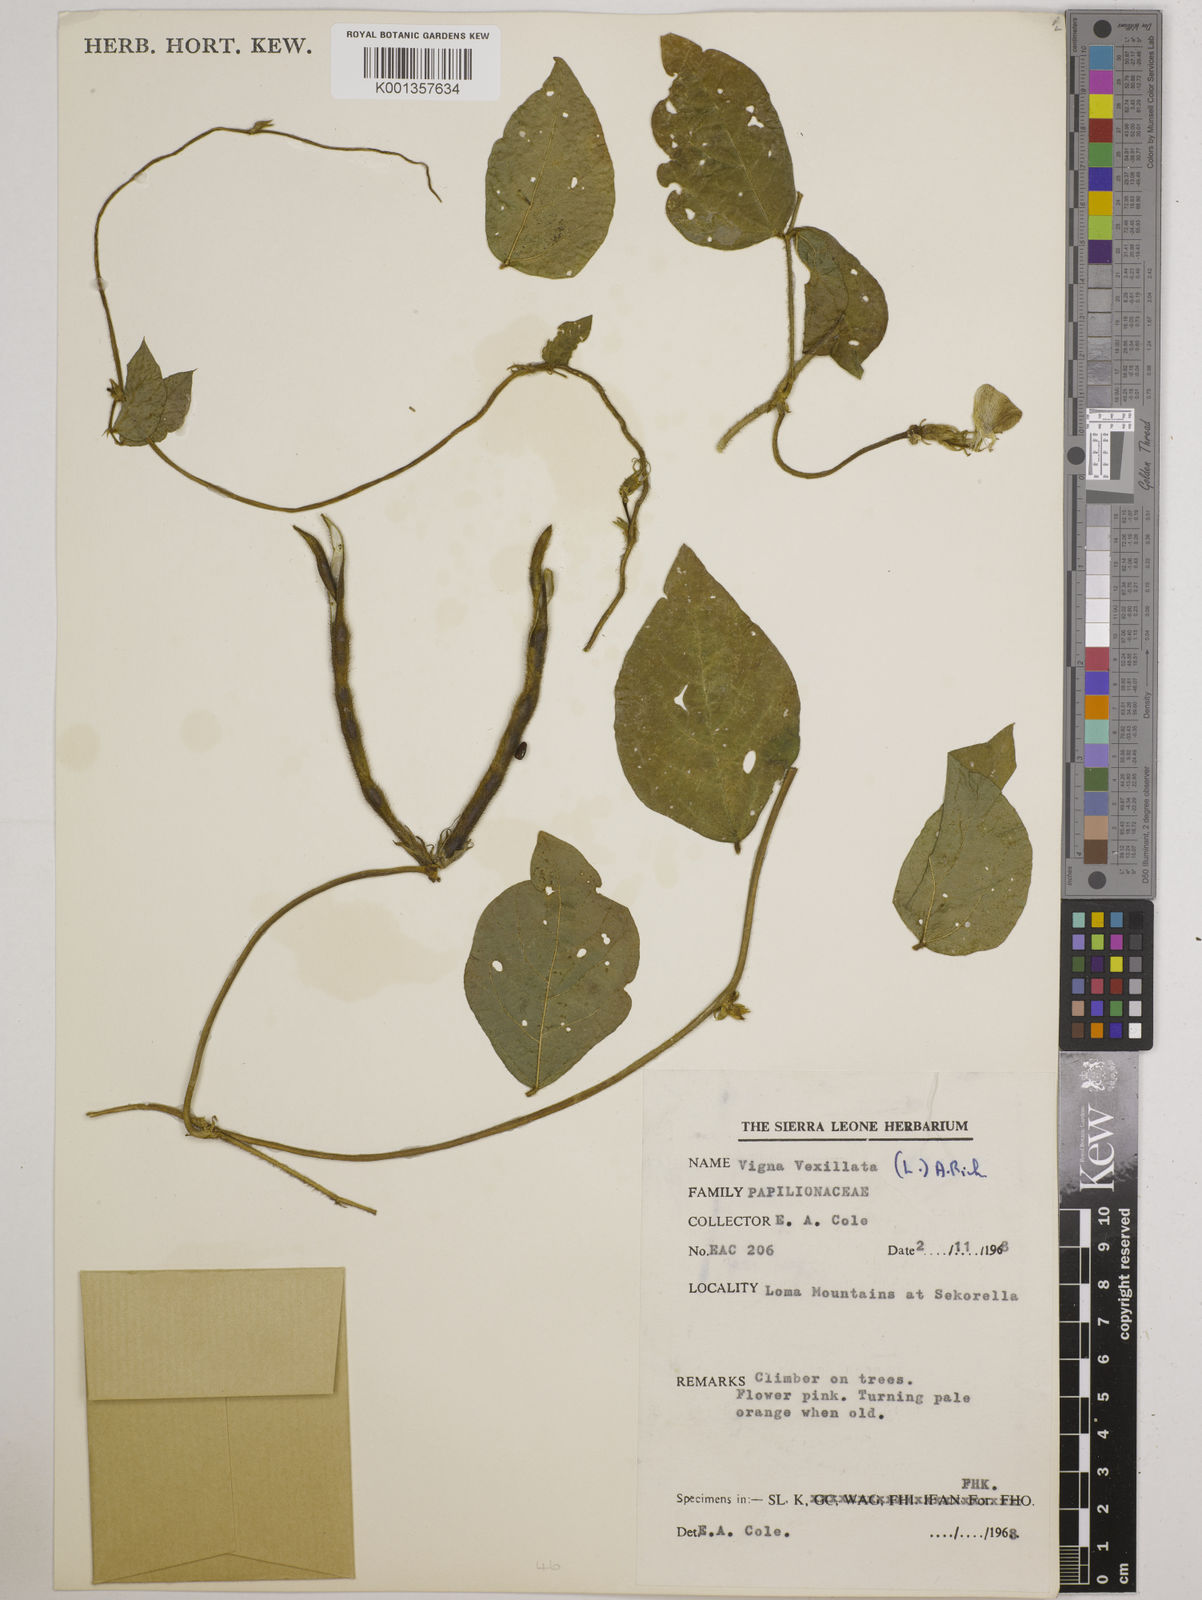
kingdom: Plantae
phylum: Tracheophyta
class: Magnoliopsida
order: Fabales
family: Fabaceae
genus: Vigna
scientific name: Vigna vexillata
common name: Zombi pea
